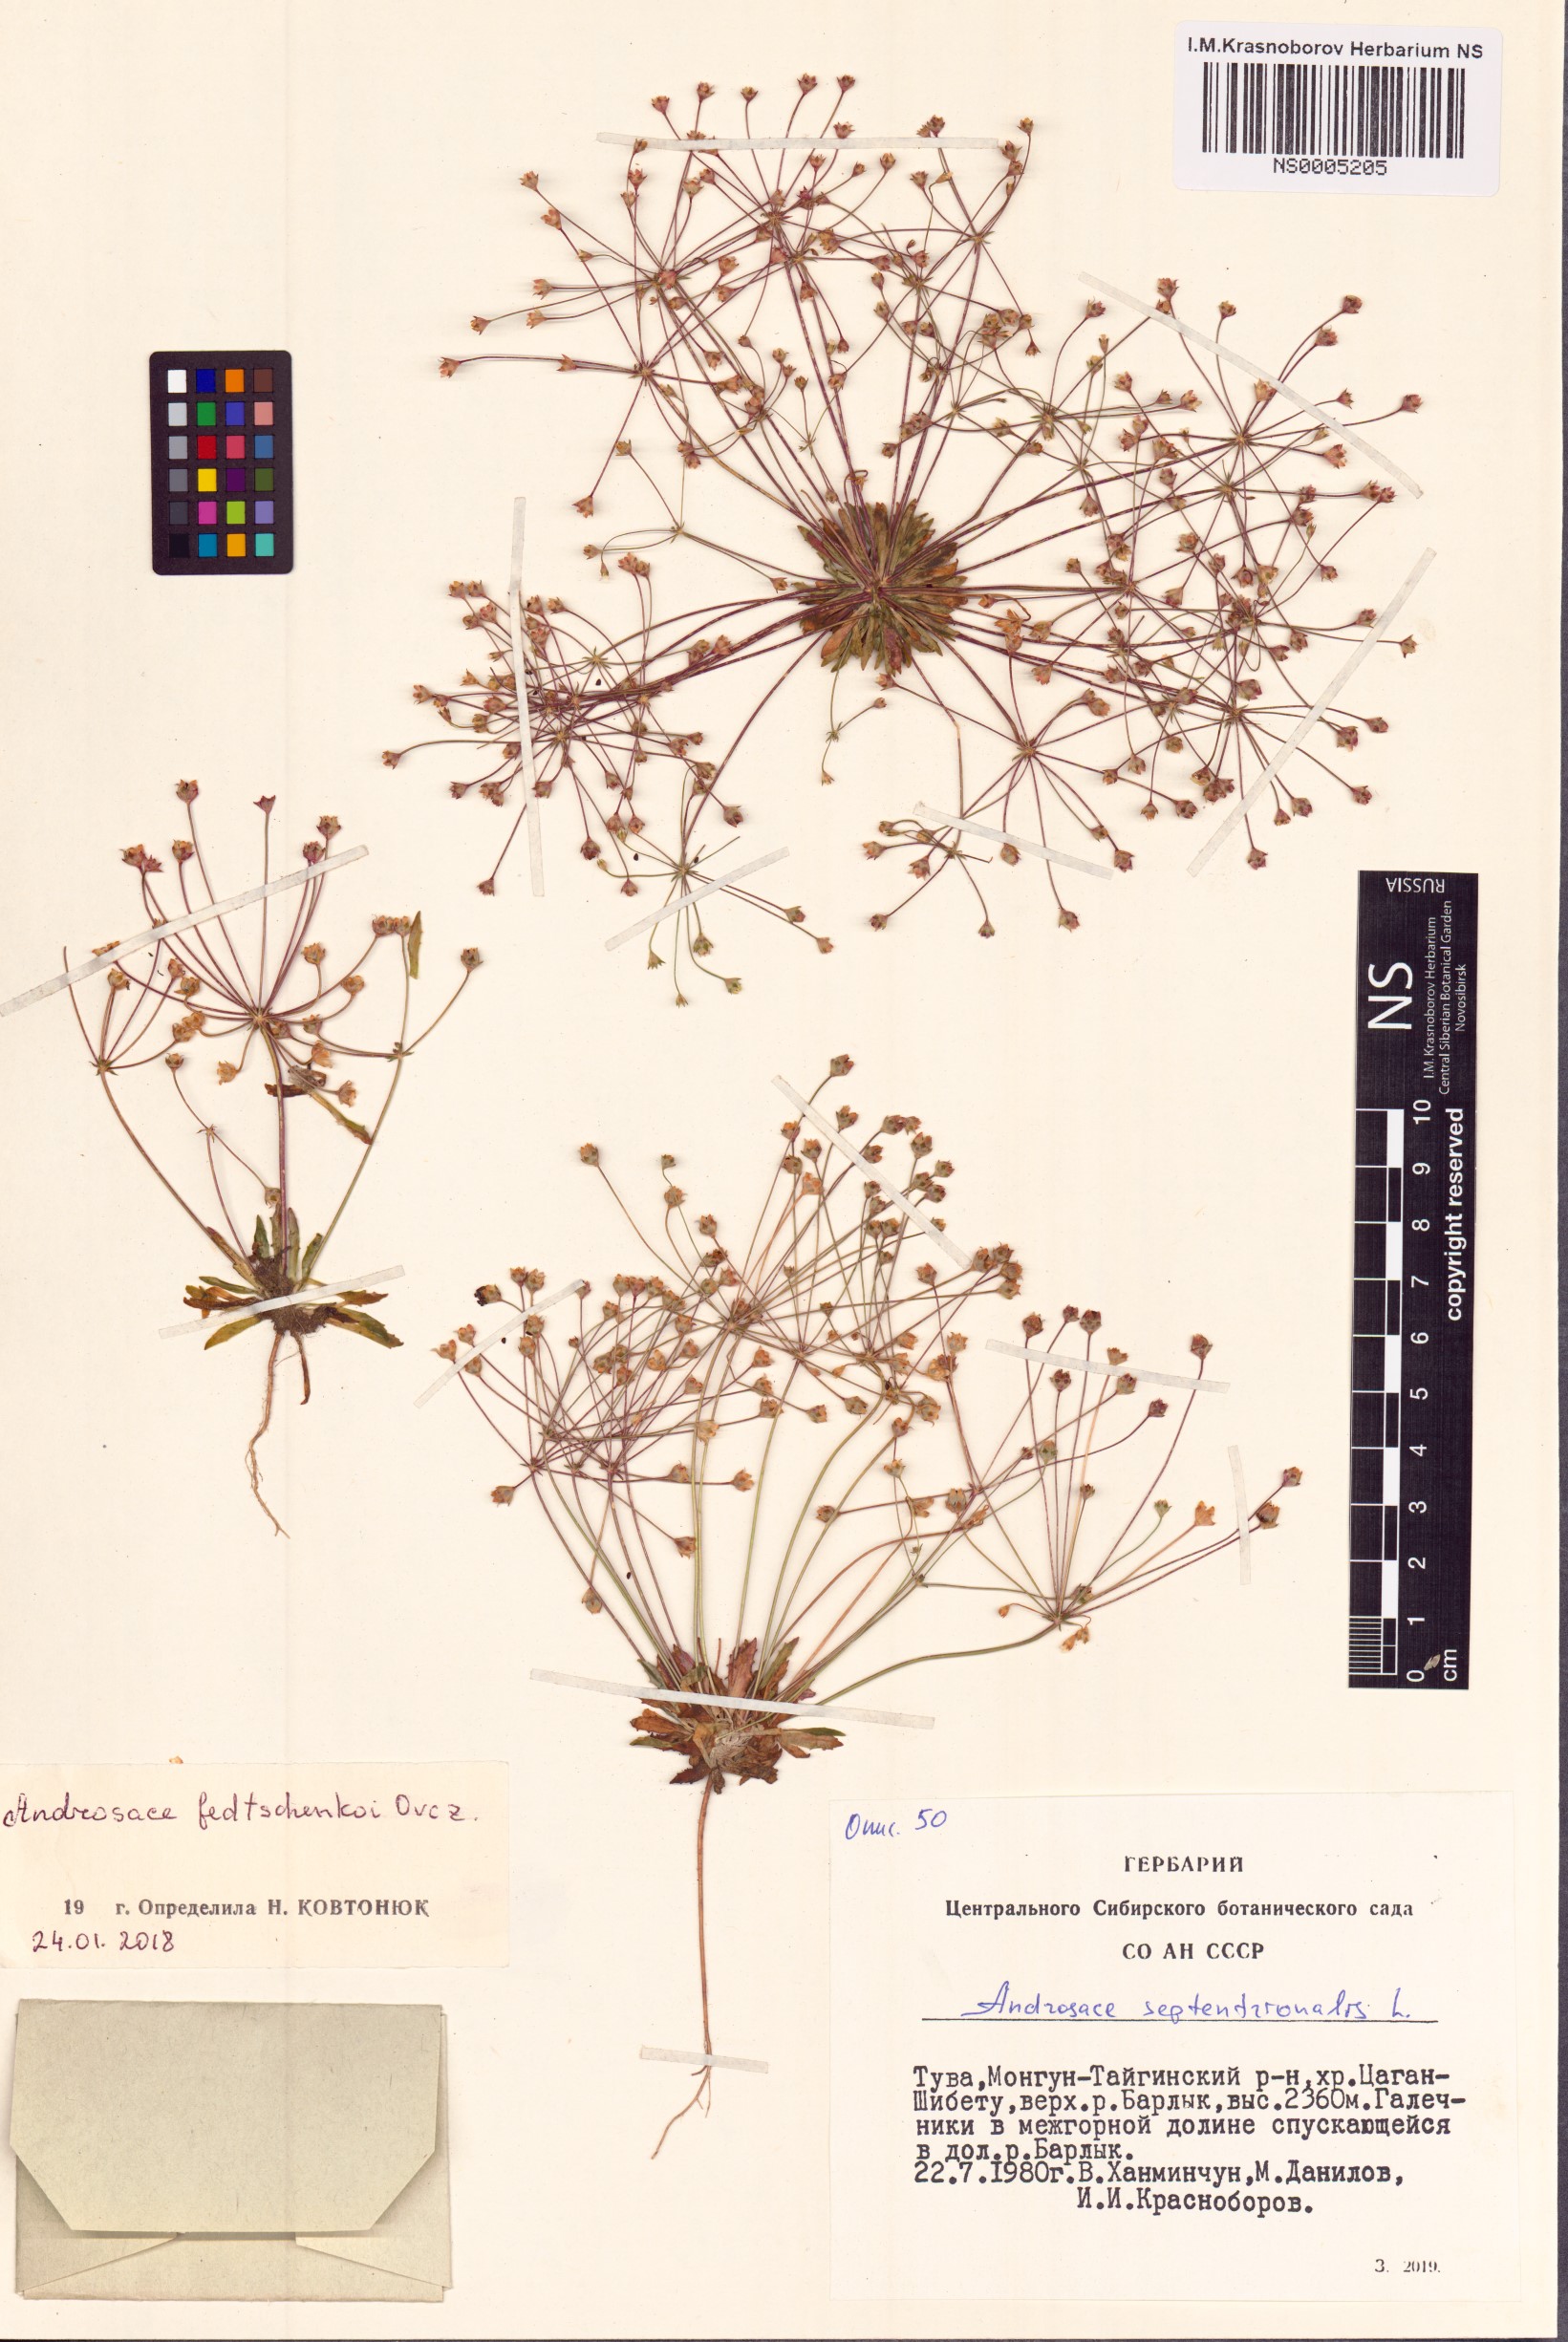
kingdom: Plantae
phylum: Tracheophyta
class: Magnoliopsida
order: Ericales
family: Primulaceae
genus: Androsace
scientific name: Androsace fedtschenkoi
